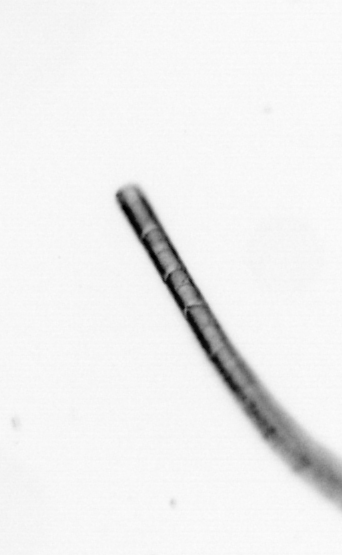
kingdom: Chromista
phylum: Ochrophyta
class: Bacillariophyceae
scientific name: Bacillariophyceae
